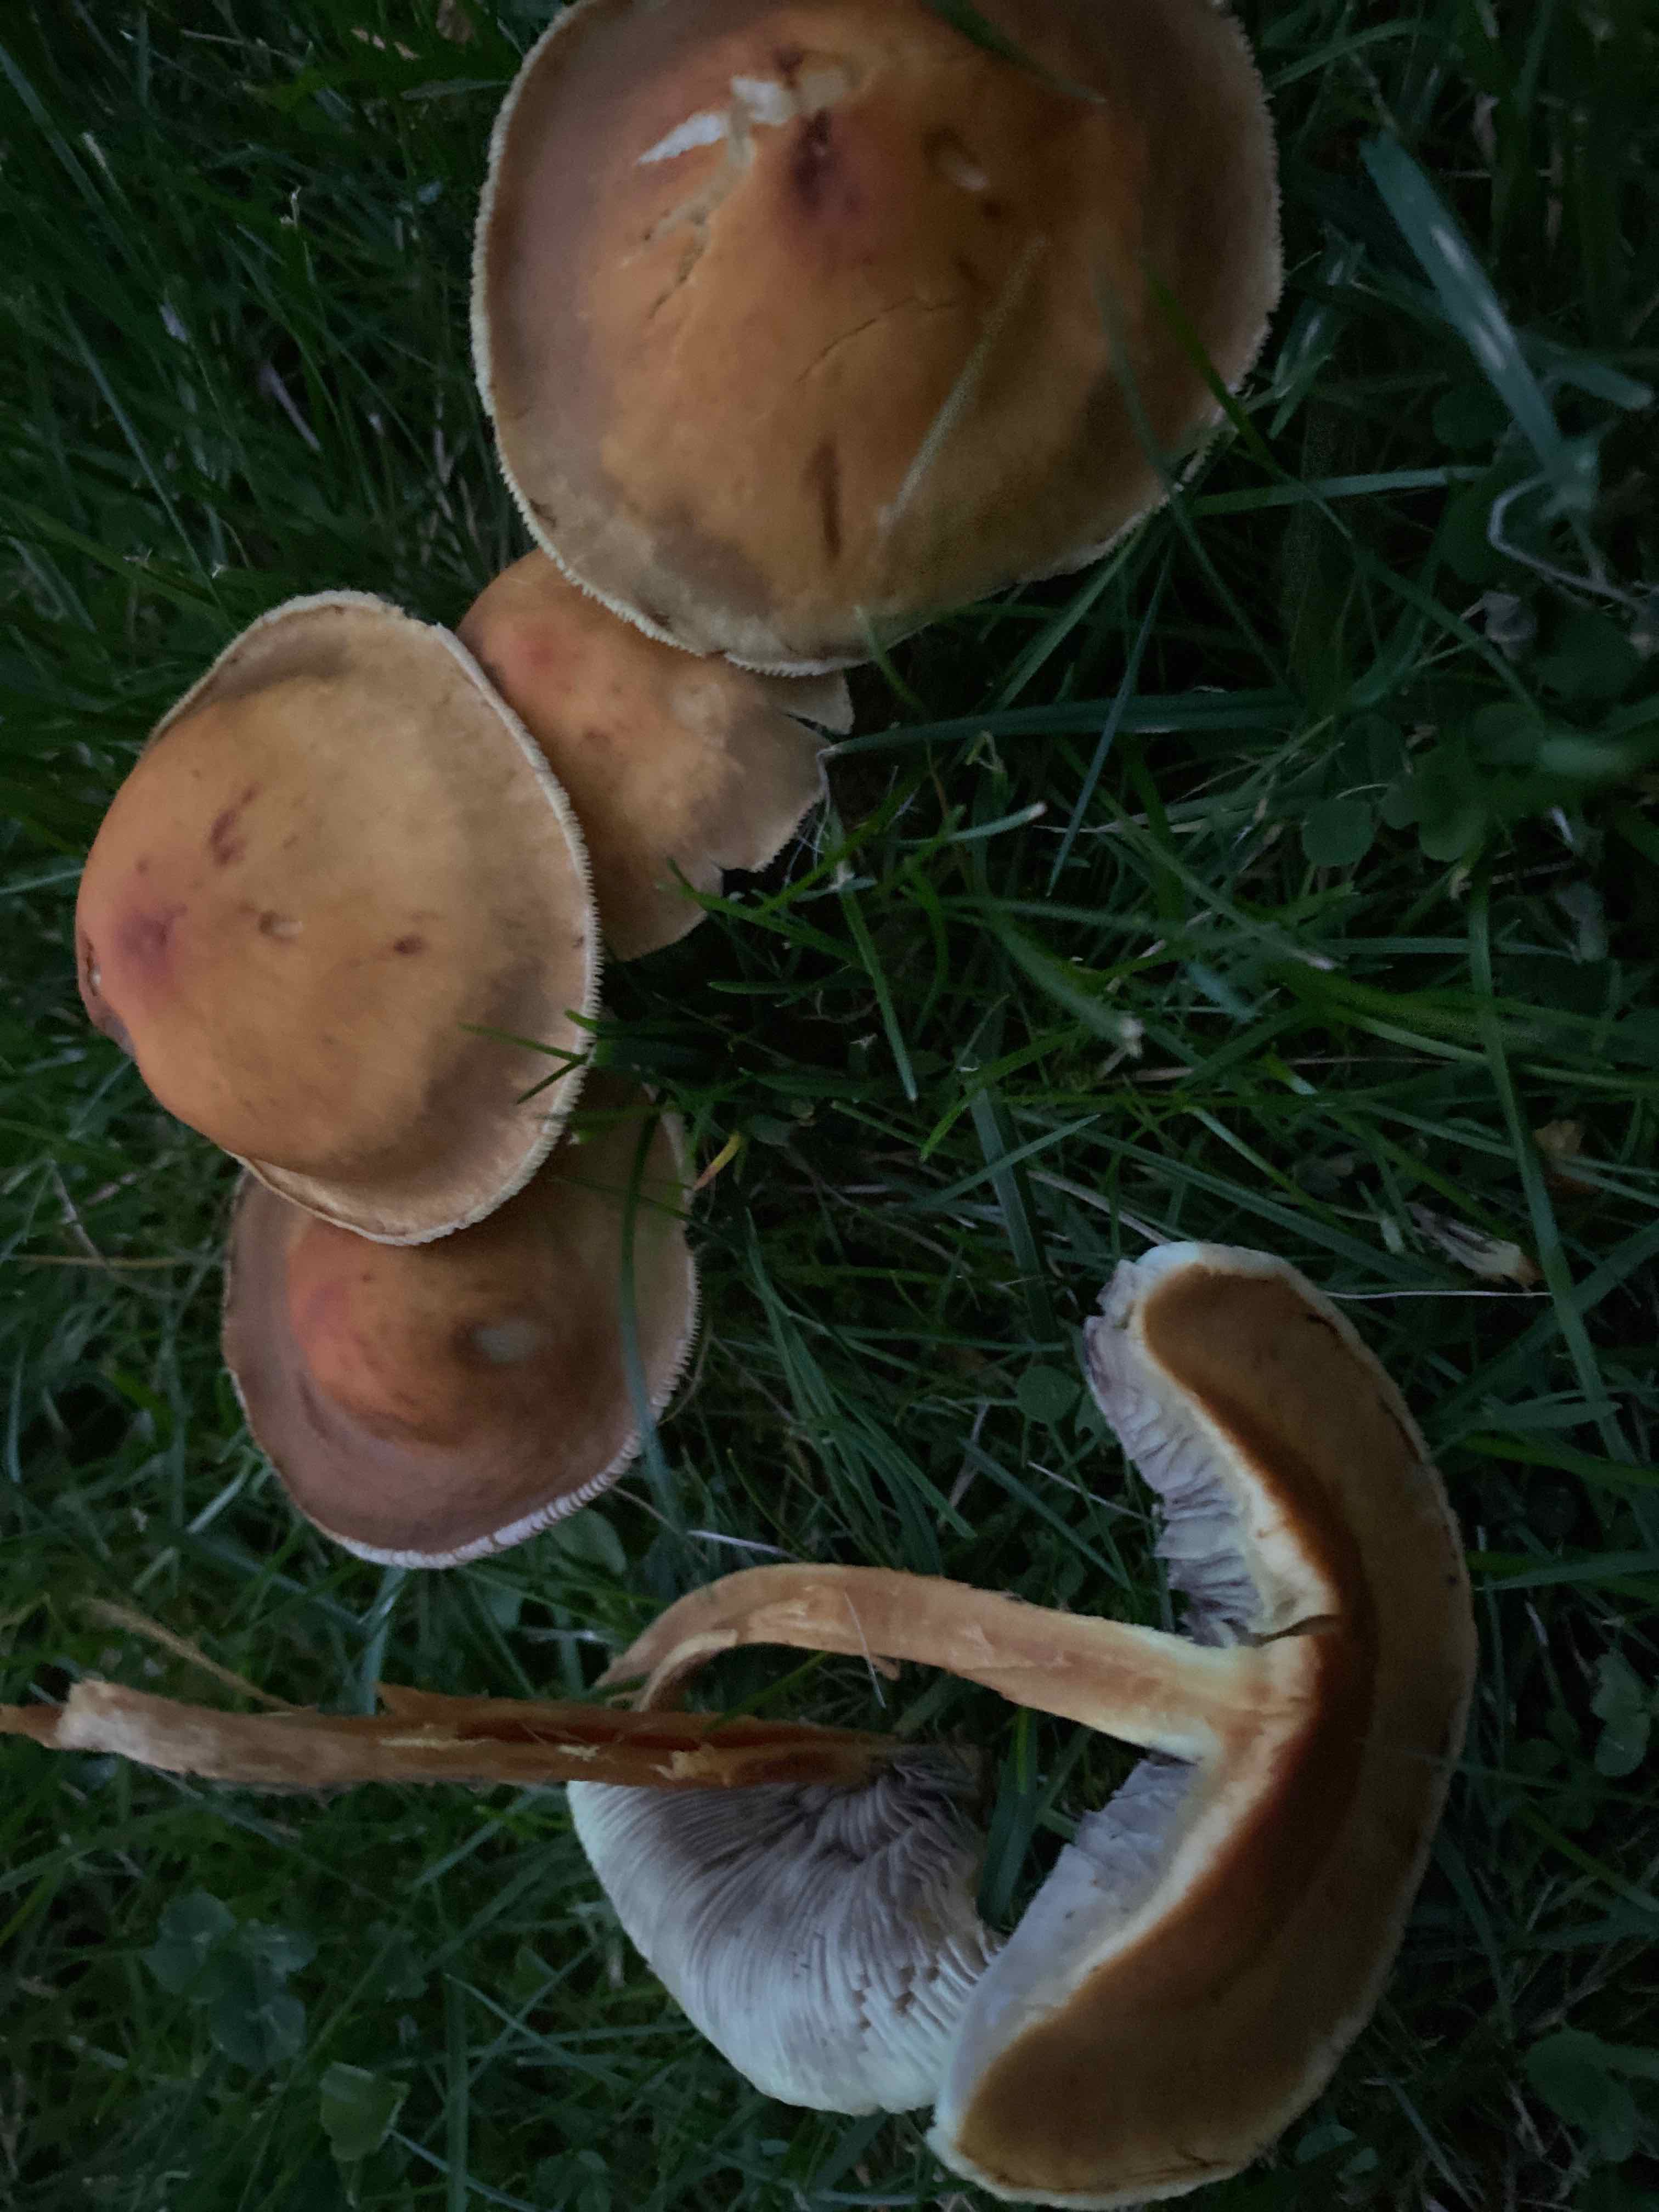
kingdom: Fungi
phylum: Basidiomycota
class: Agaricomycetes
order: Agaricales
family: Strophariaceae
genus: Hypholoma
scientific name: Hypholoma capnoides
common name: gran-svovlhat
